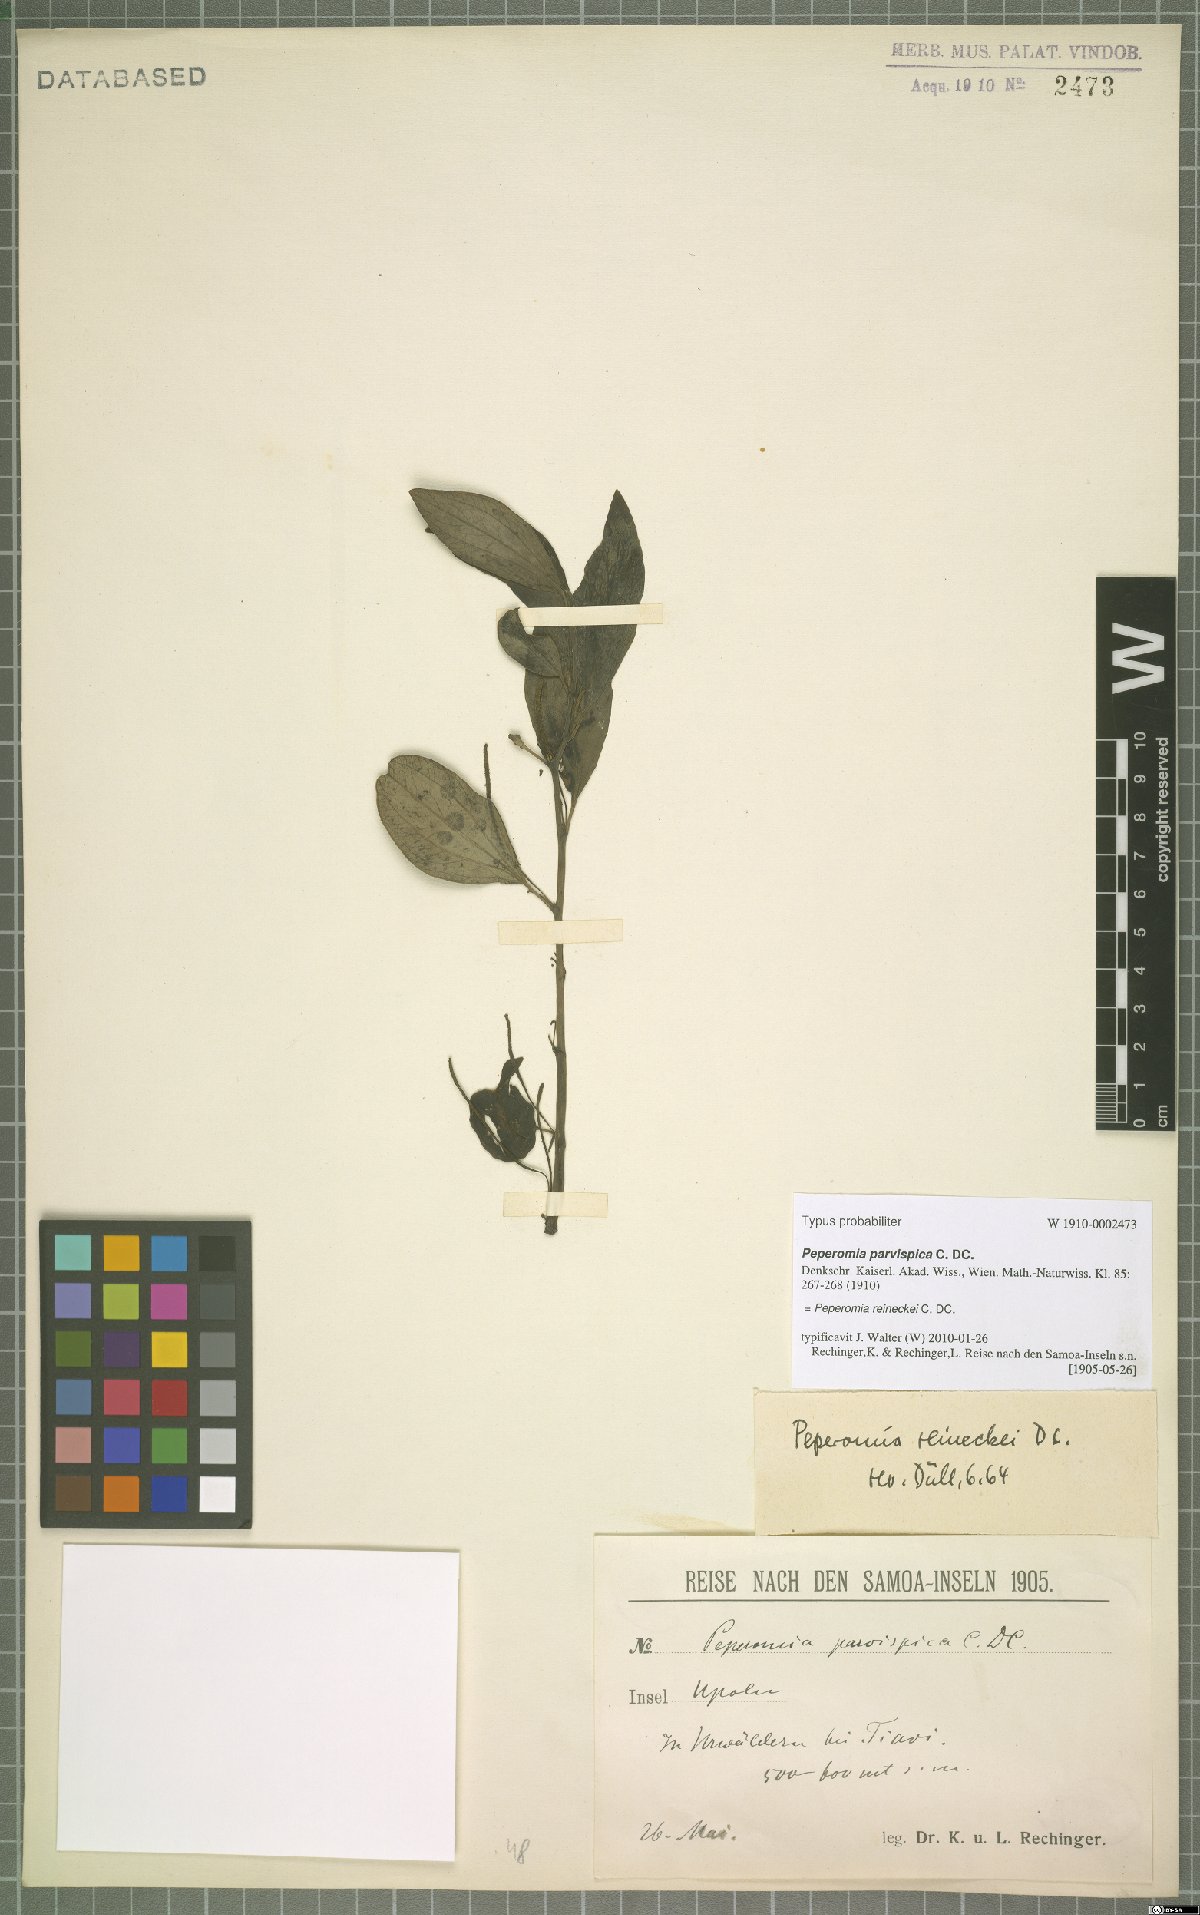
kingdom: Plantae
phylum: Tracheophyta
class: Magnoliopsida
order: Piperales
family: Piperaceae
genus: Peperomia
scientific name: Peperomia reineckei
